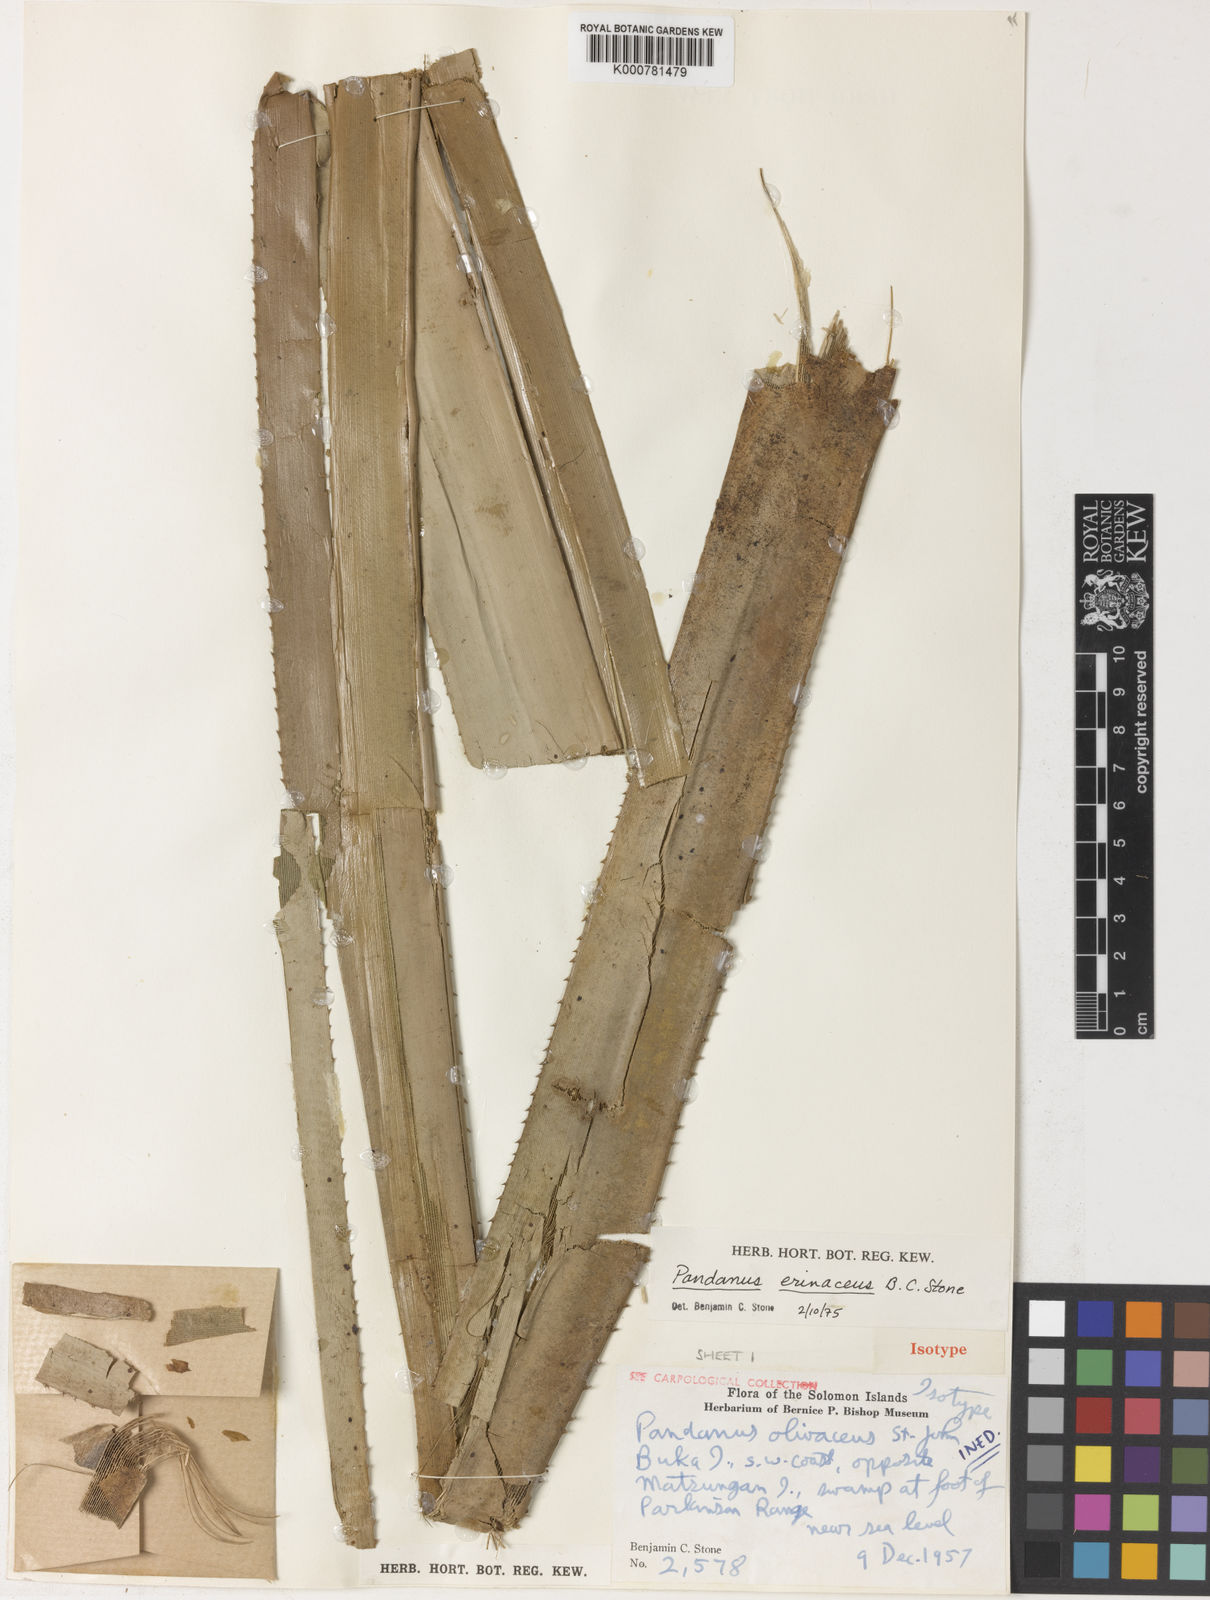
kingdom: Plantae
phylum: Tracheophyta
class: Liliopsida
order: Pandanales
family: Pandanaceae
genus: Benstonea
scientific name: Benstonea stenocarpa
